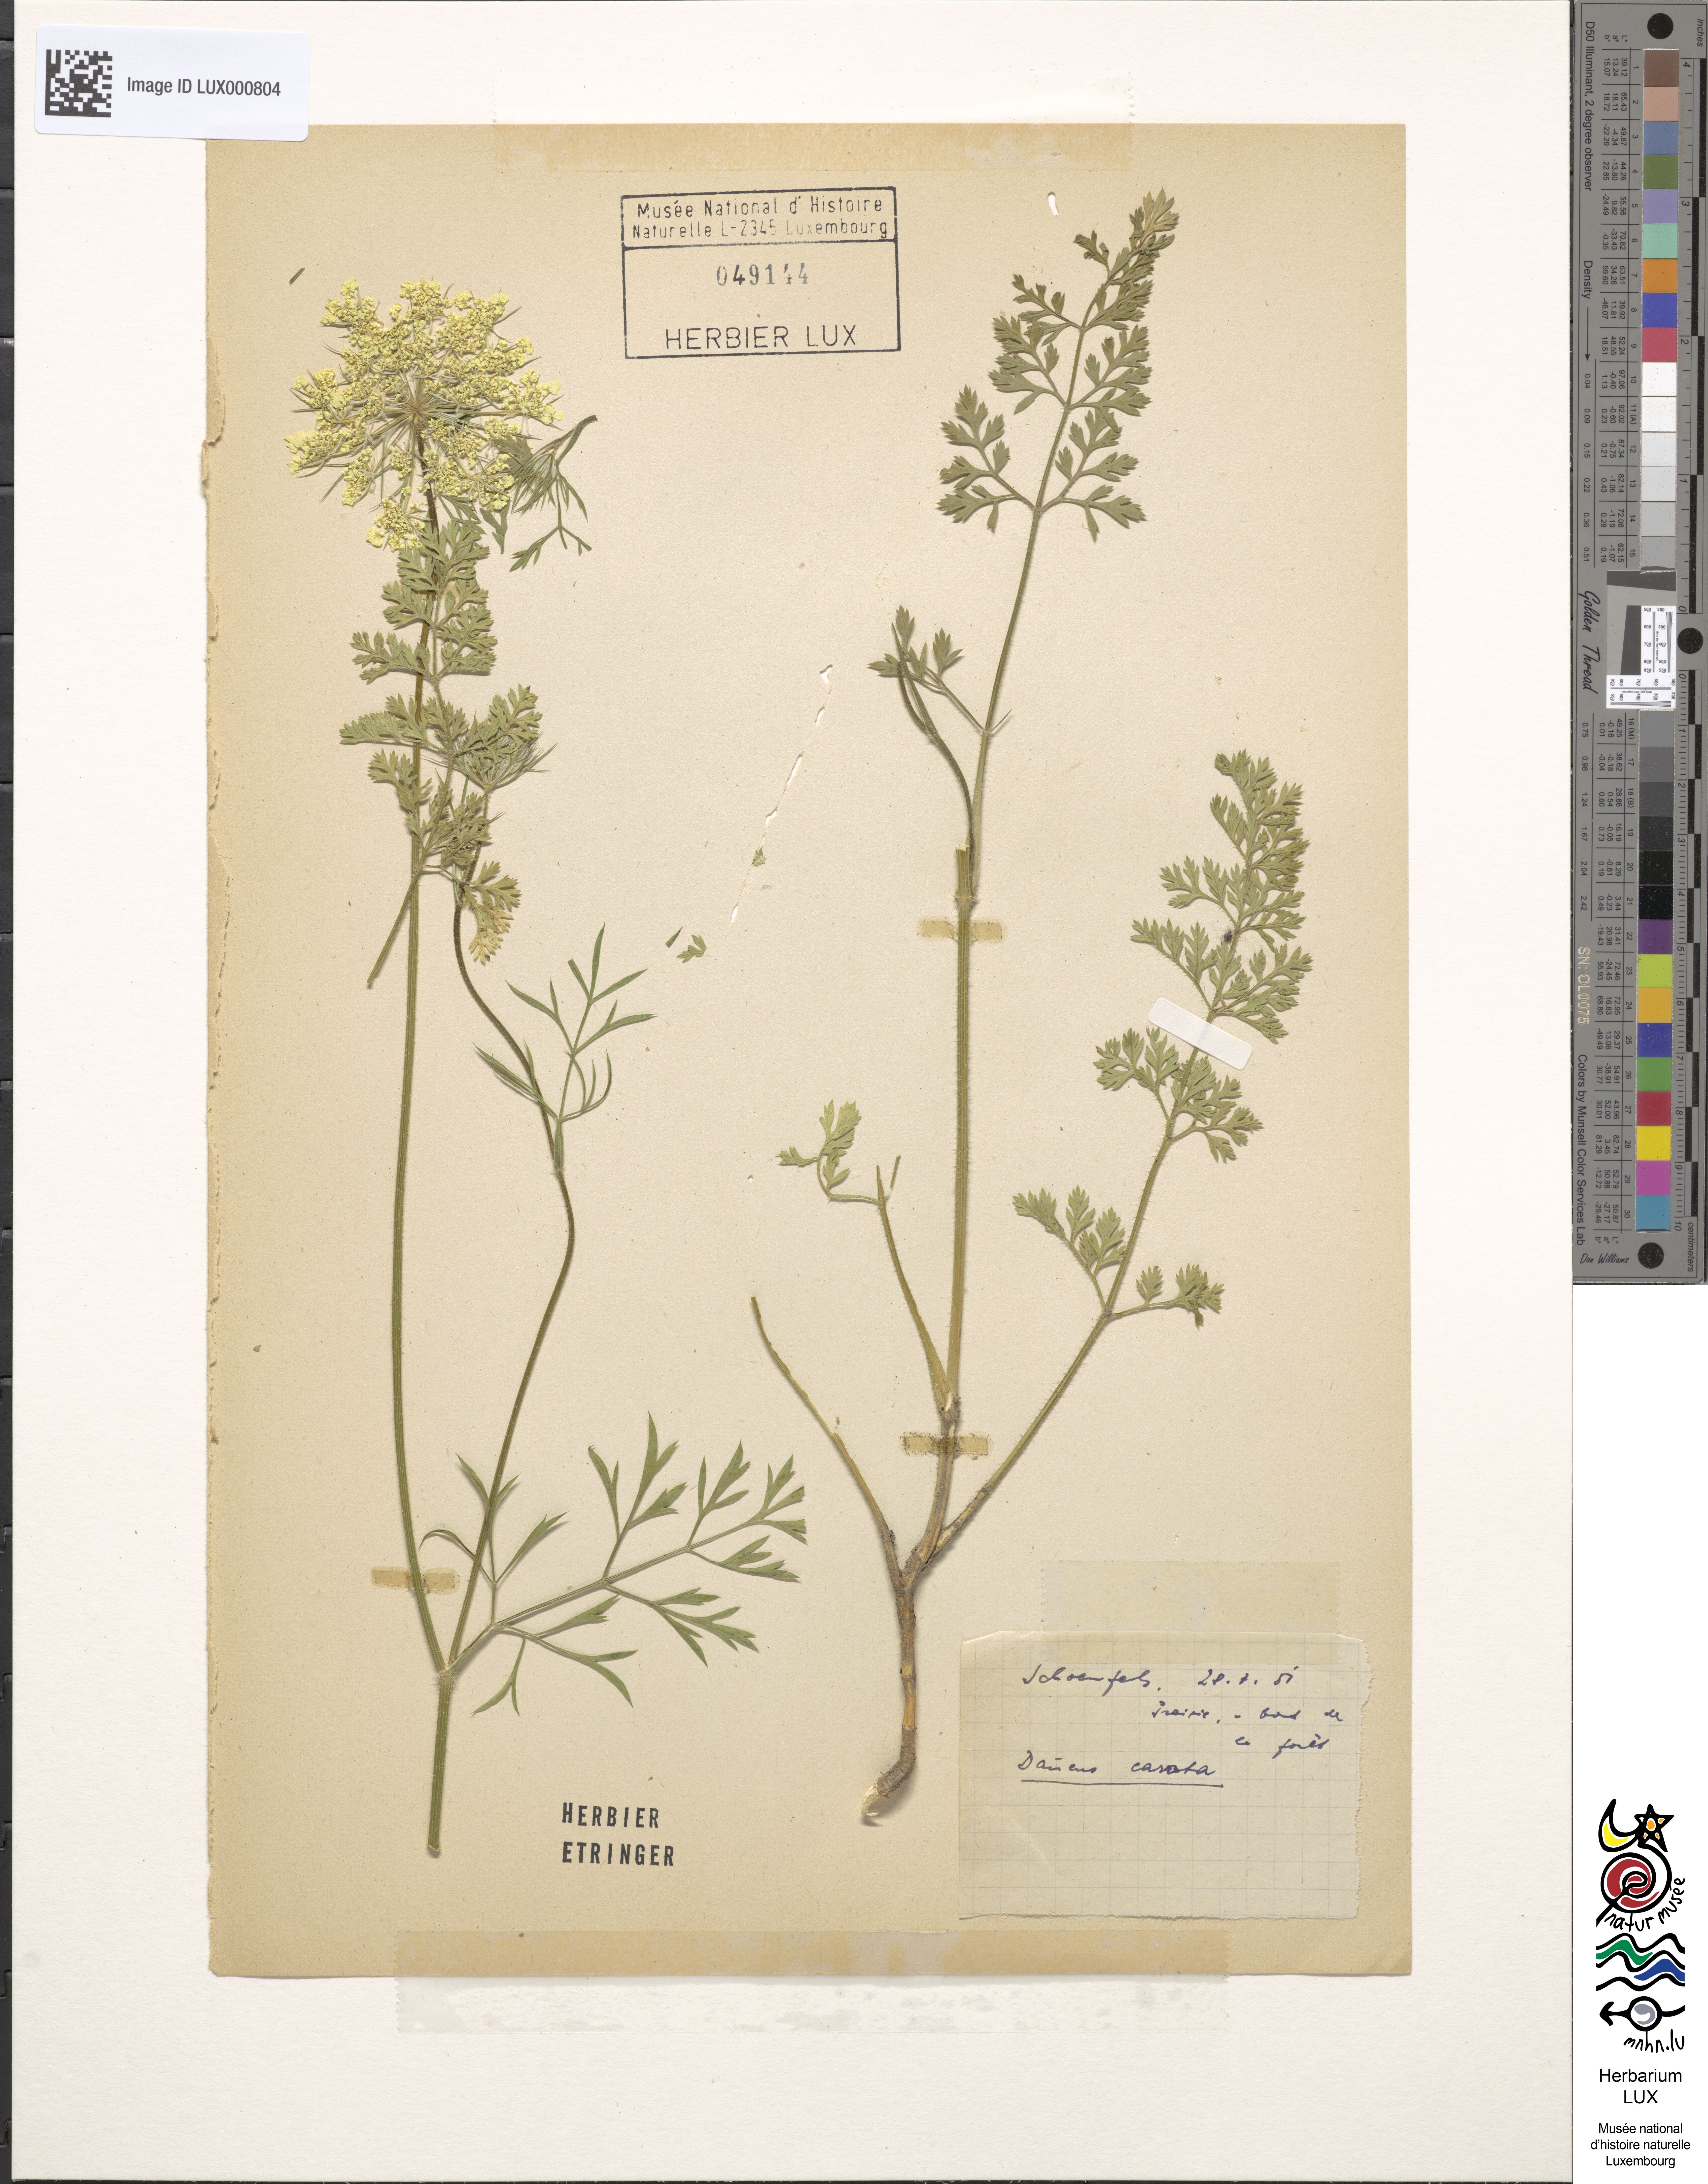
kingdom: Plantae
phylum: Tracheophyta
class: Magnoliopsida
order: Apiales
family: Apiaceae
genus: Daucus
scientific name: Daucus carota
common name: Wild carrot
